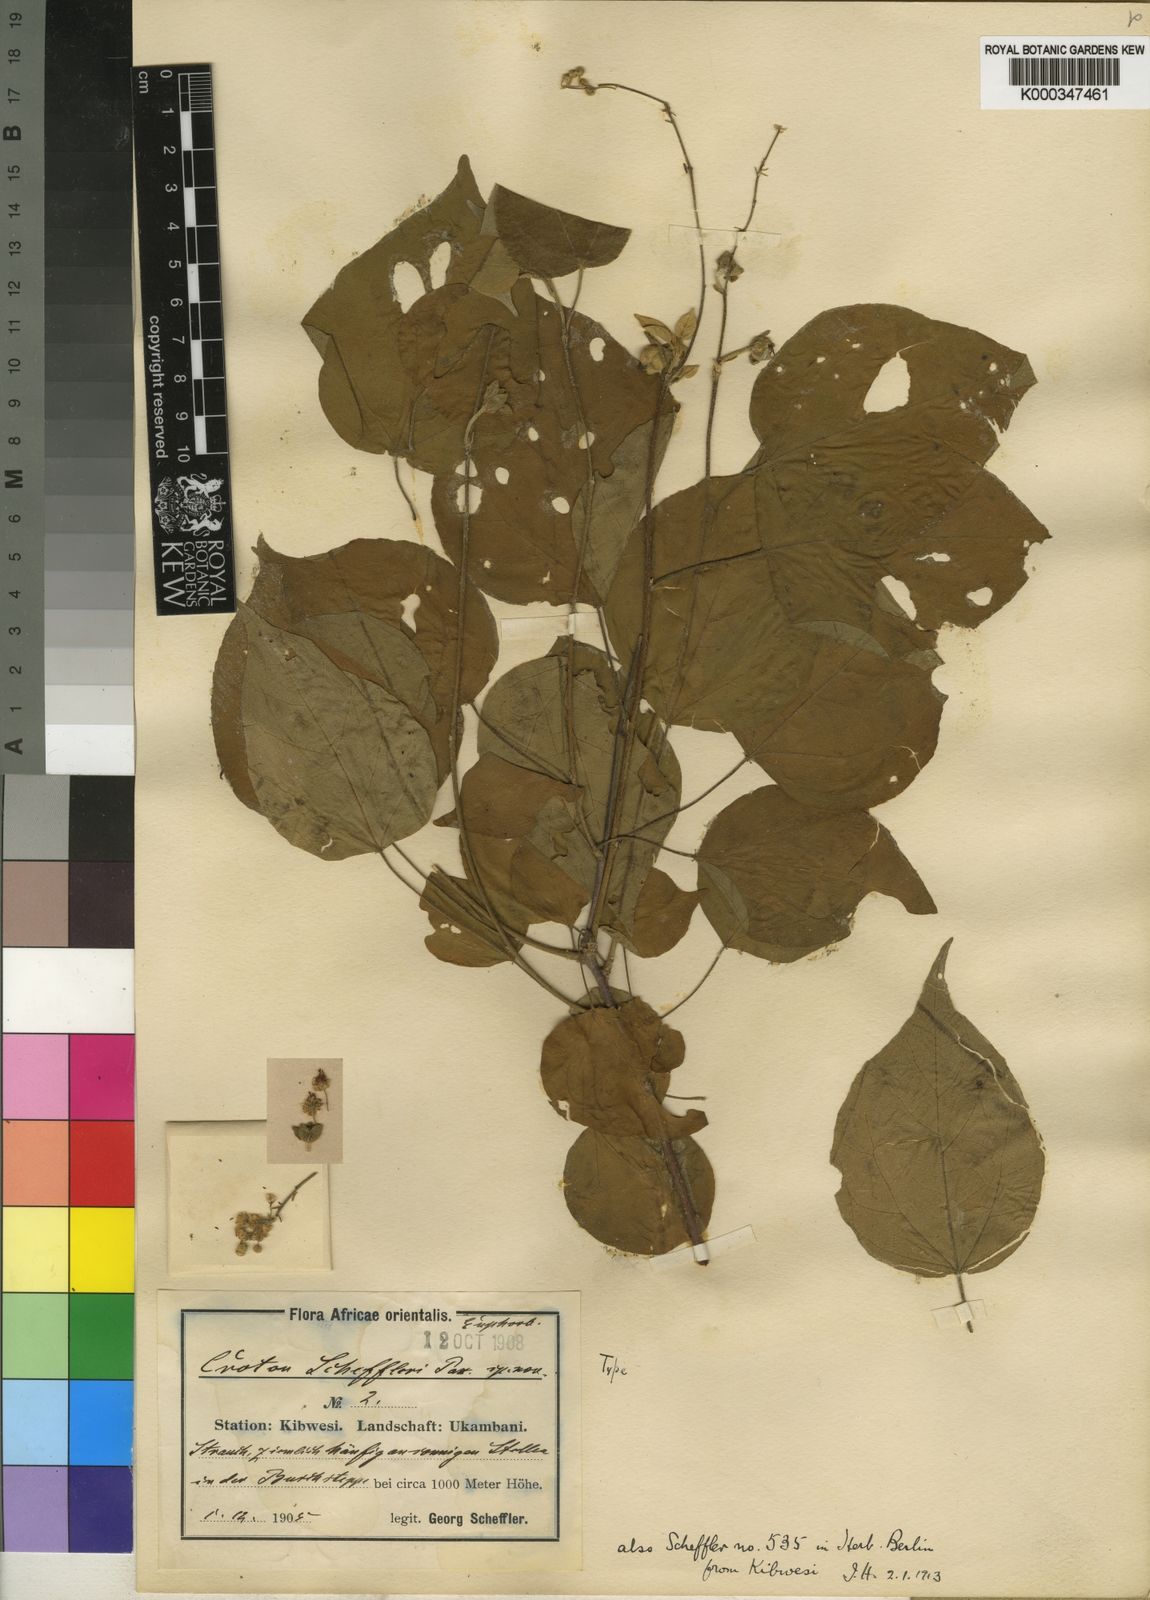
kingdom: Plantae
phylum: Tracheophyta
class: Magnoliopsida
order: Malpighiales
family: Euphorbiaceae
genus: Croton
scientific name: Croton scheffleri
